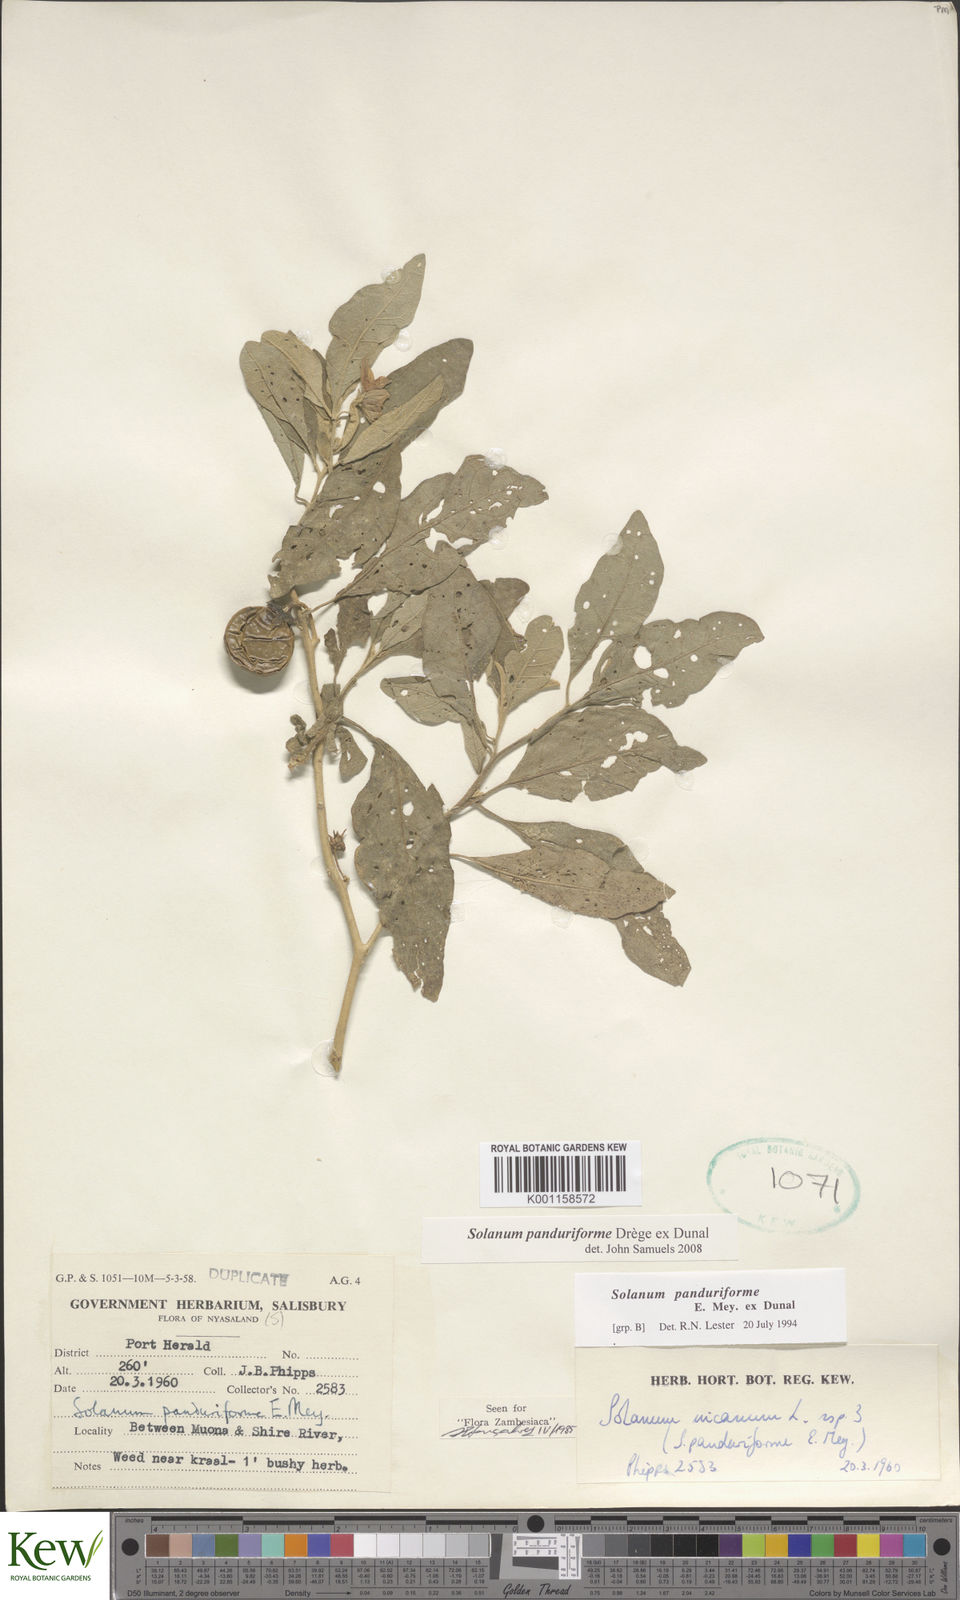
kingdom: Plantae
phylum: Tracheophyta
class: Magnoliopsida
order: Solanales
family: Solanaceae
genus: Solanum
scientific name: Solanum campylacanthum
